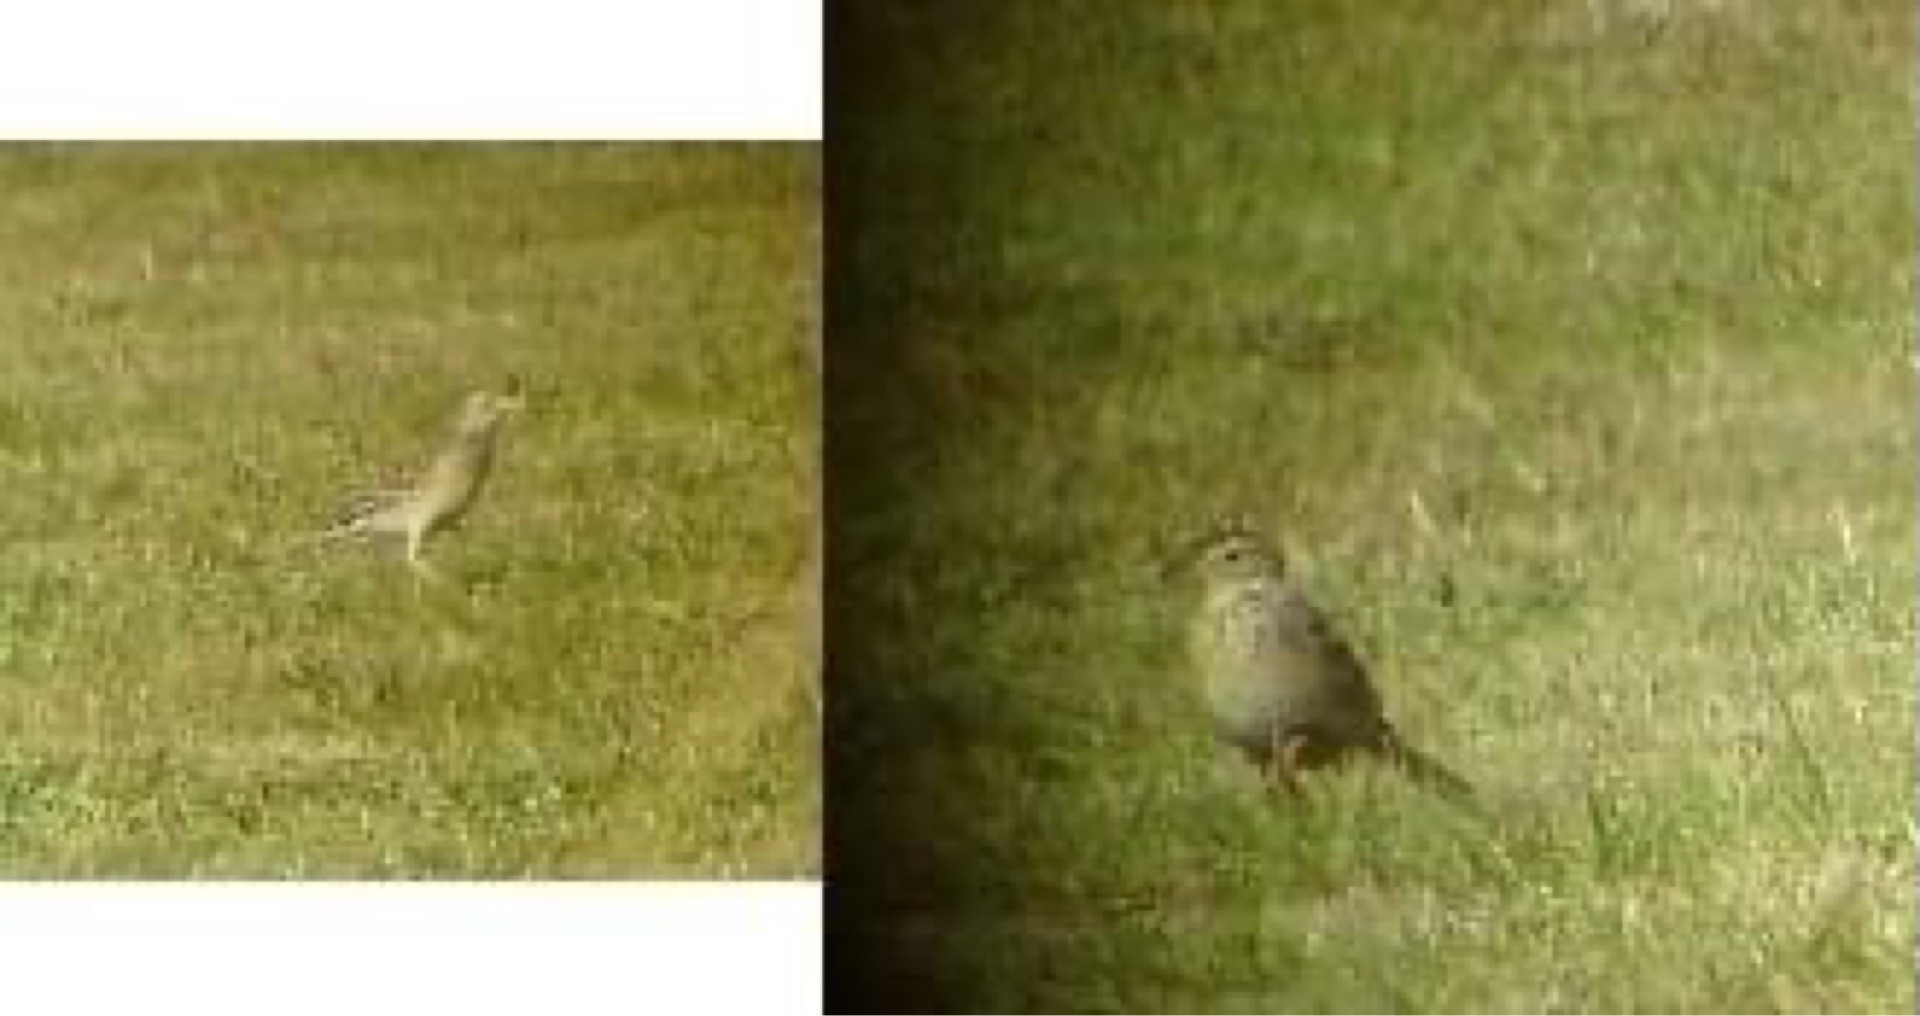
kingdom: Animalia
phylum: Chordata
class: Aves
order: Passeriformes
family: Motacillidae
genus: Anthus
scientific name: Anthus richardi
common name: Storpiber
